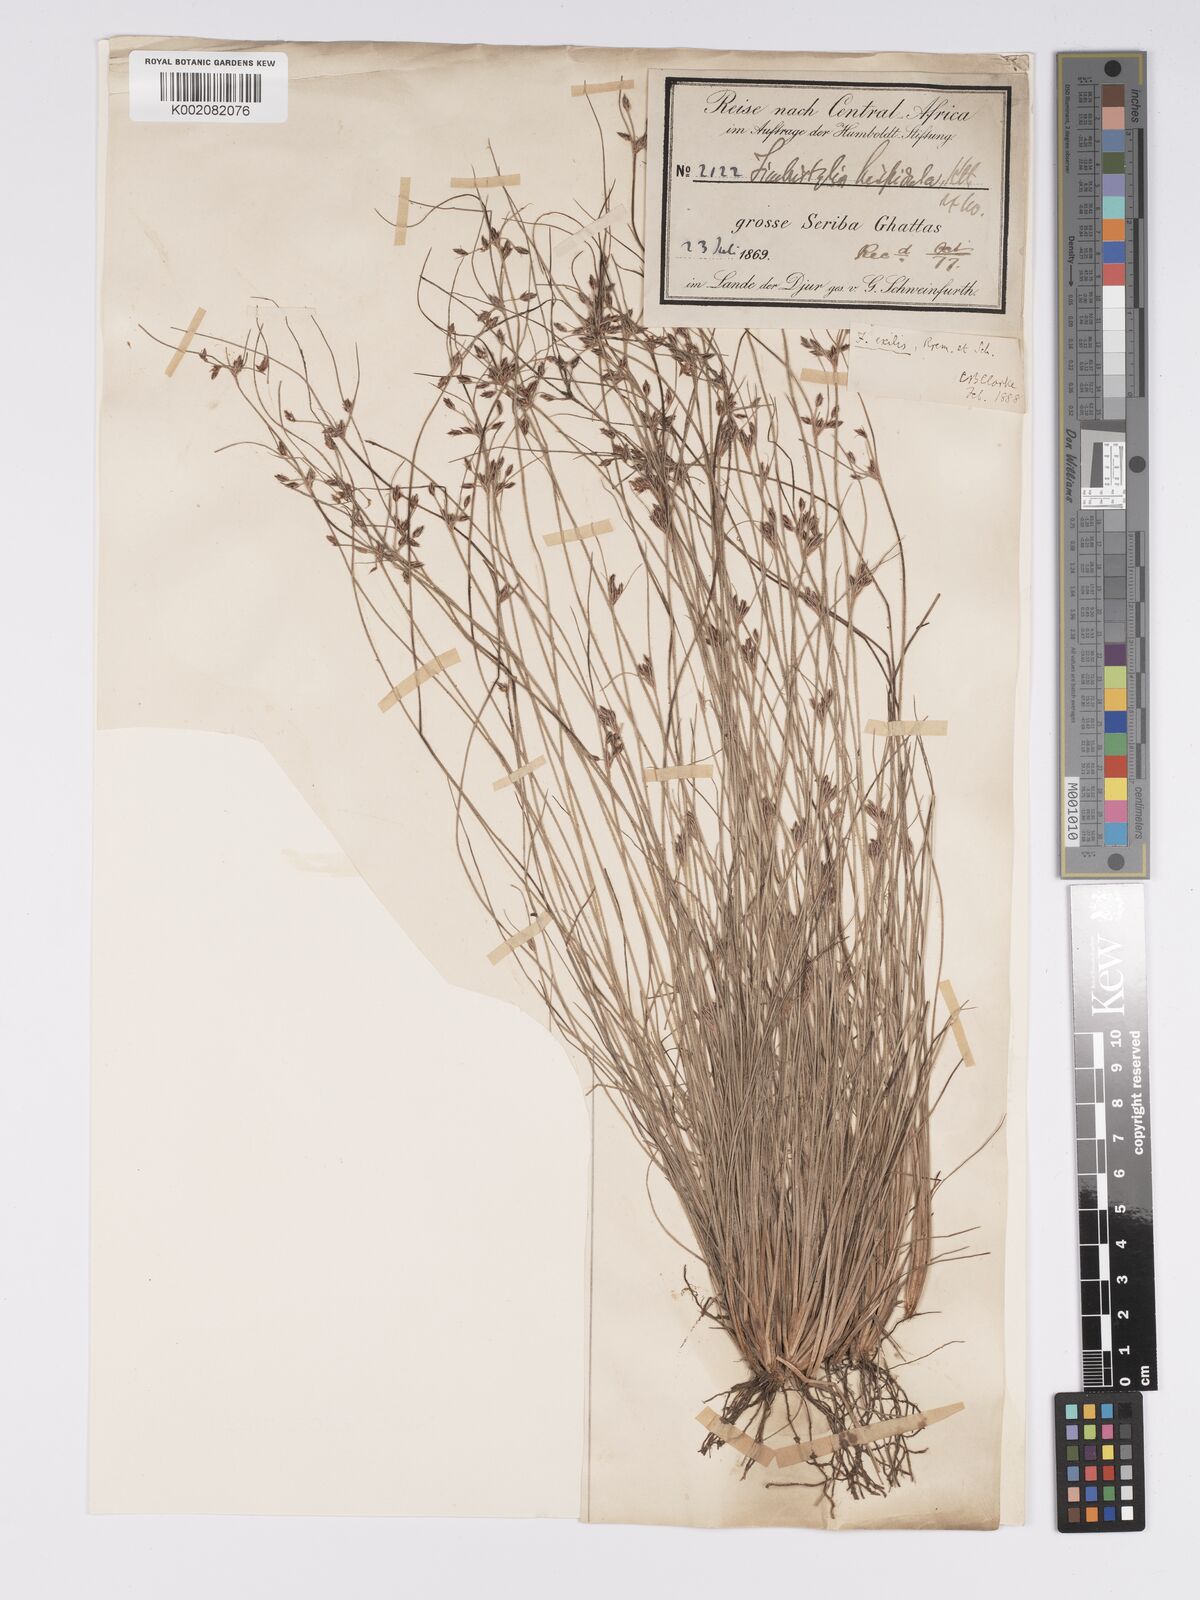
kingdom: Plantae
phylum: Tracheophyta
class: Liliopsida
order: Poales
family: Cyperaceae
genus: Bulbostylis
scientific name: Bulbostylis hispidula
